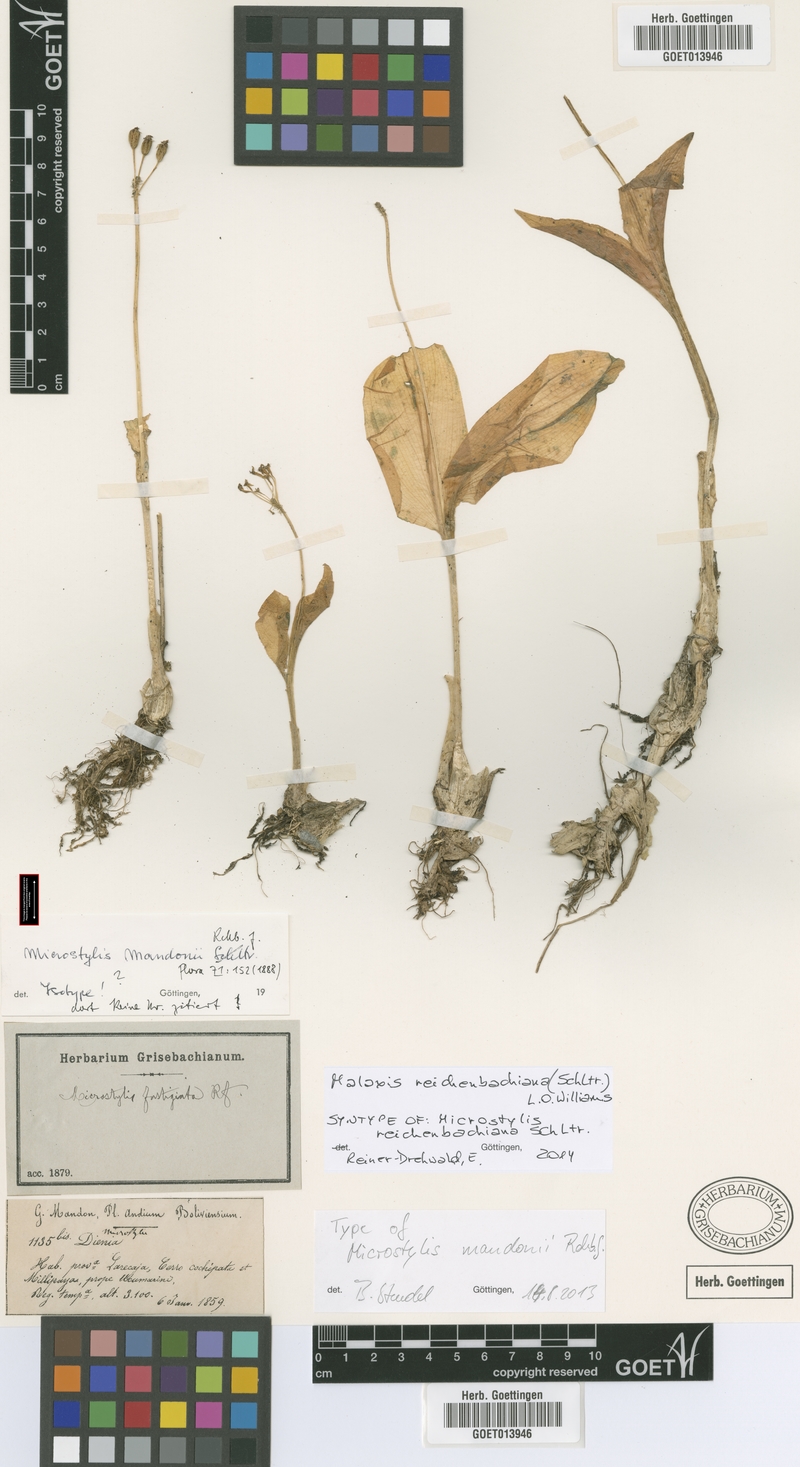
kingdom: Plantae
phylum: Tracheophyta
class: Liliopsida
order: Asparagales
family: Orchidaceae
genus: Malaxis
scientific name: Malaxis reichenbachiana
